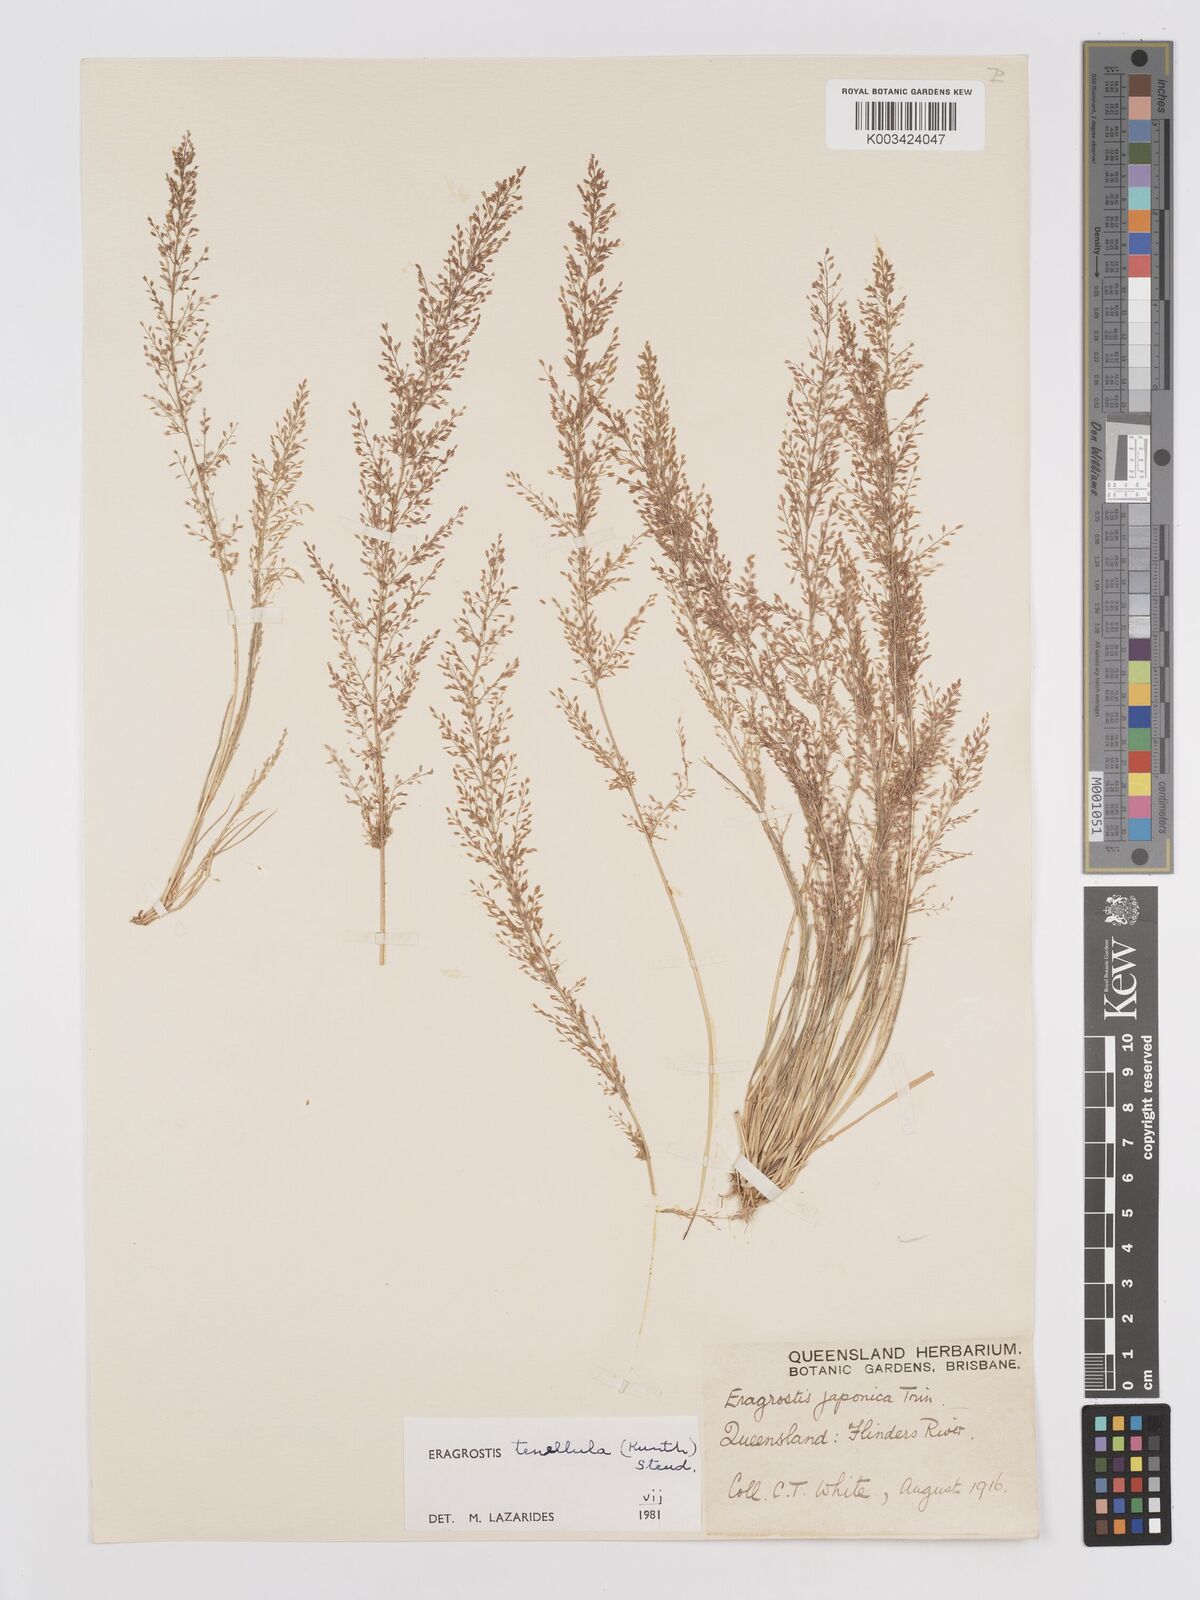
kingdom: Plantae
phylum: Tracheophyta
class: Liliopsida
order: Poales
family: Poaceae
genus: Eragrostis
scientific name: Eragrostis tenellula
